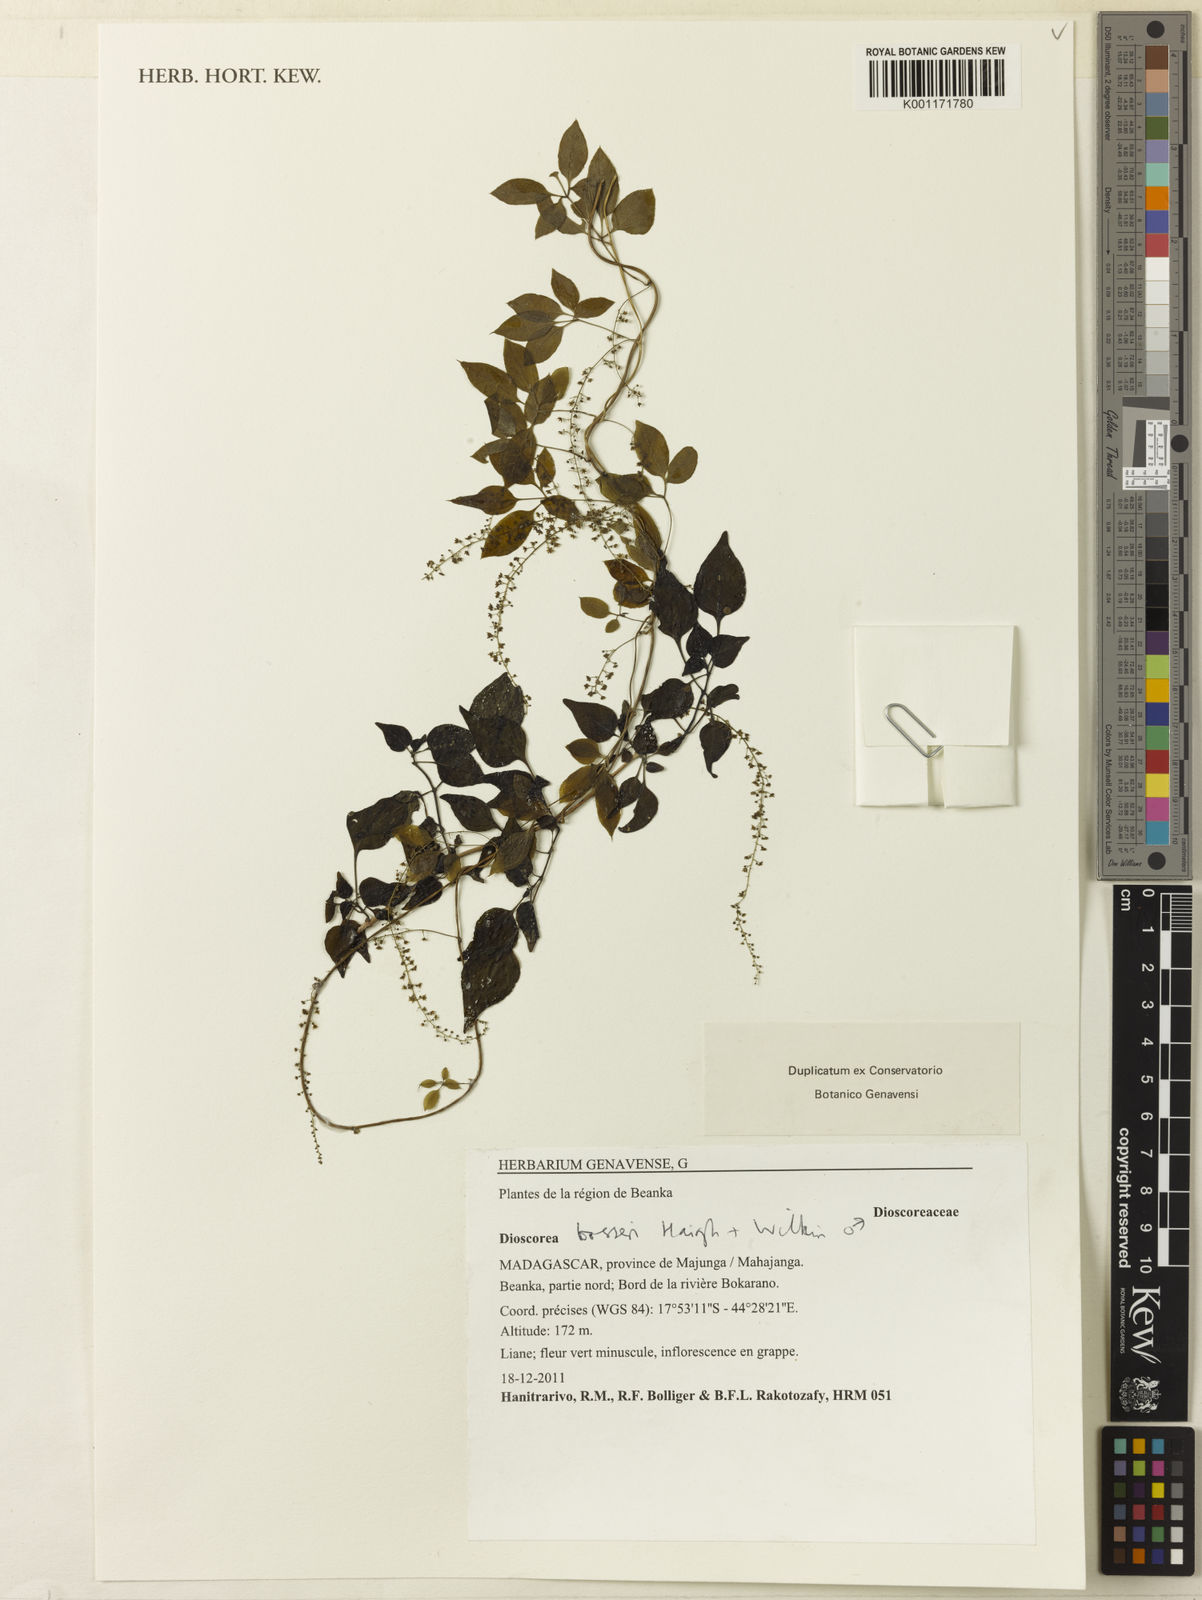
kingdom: Plantae
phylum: Tracheophyta
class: Liliopsida
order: Dioscoreales
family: Dioscoreaceae
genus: Dioscorea
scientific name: Dioscorea bosseri
